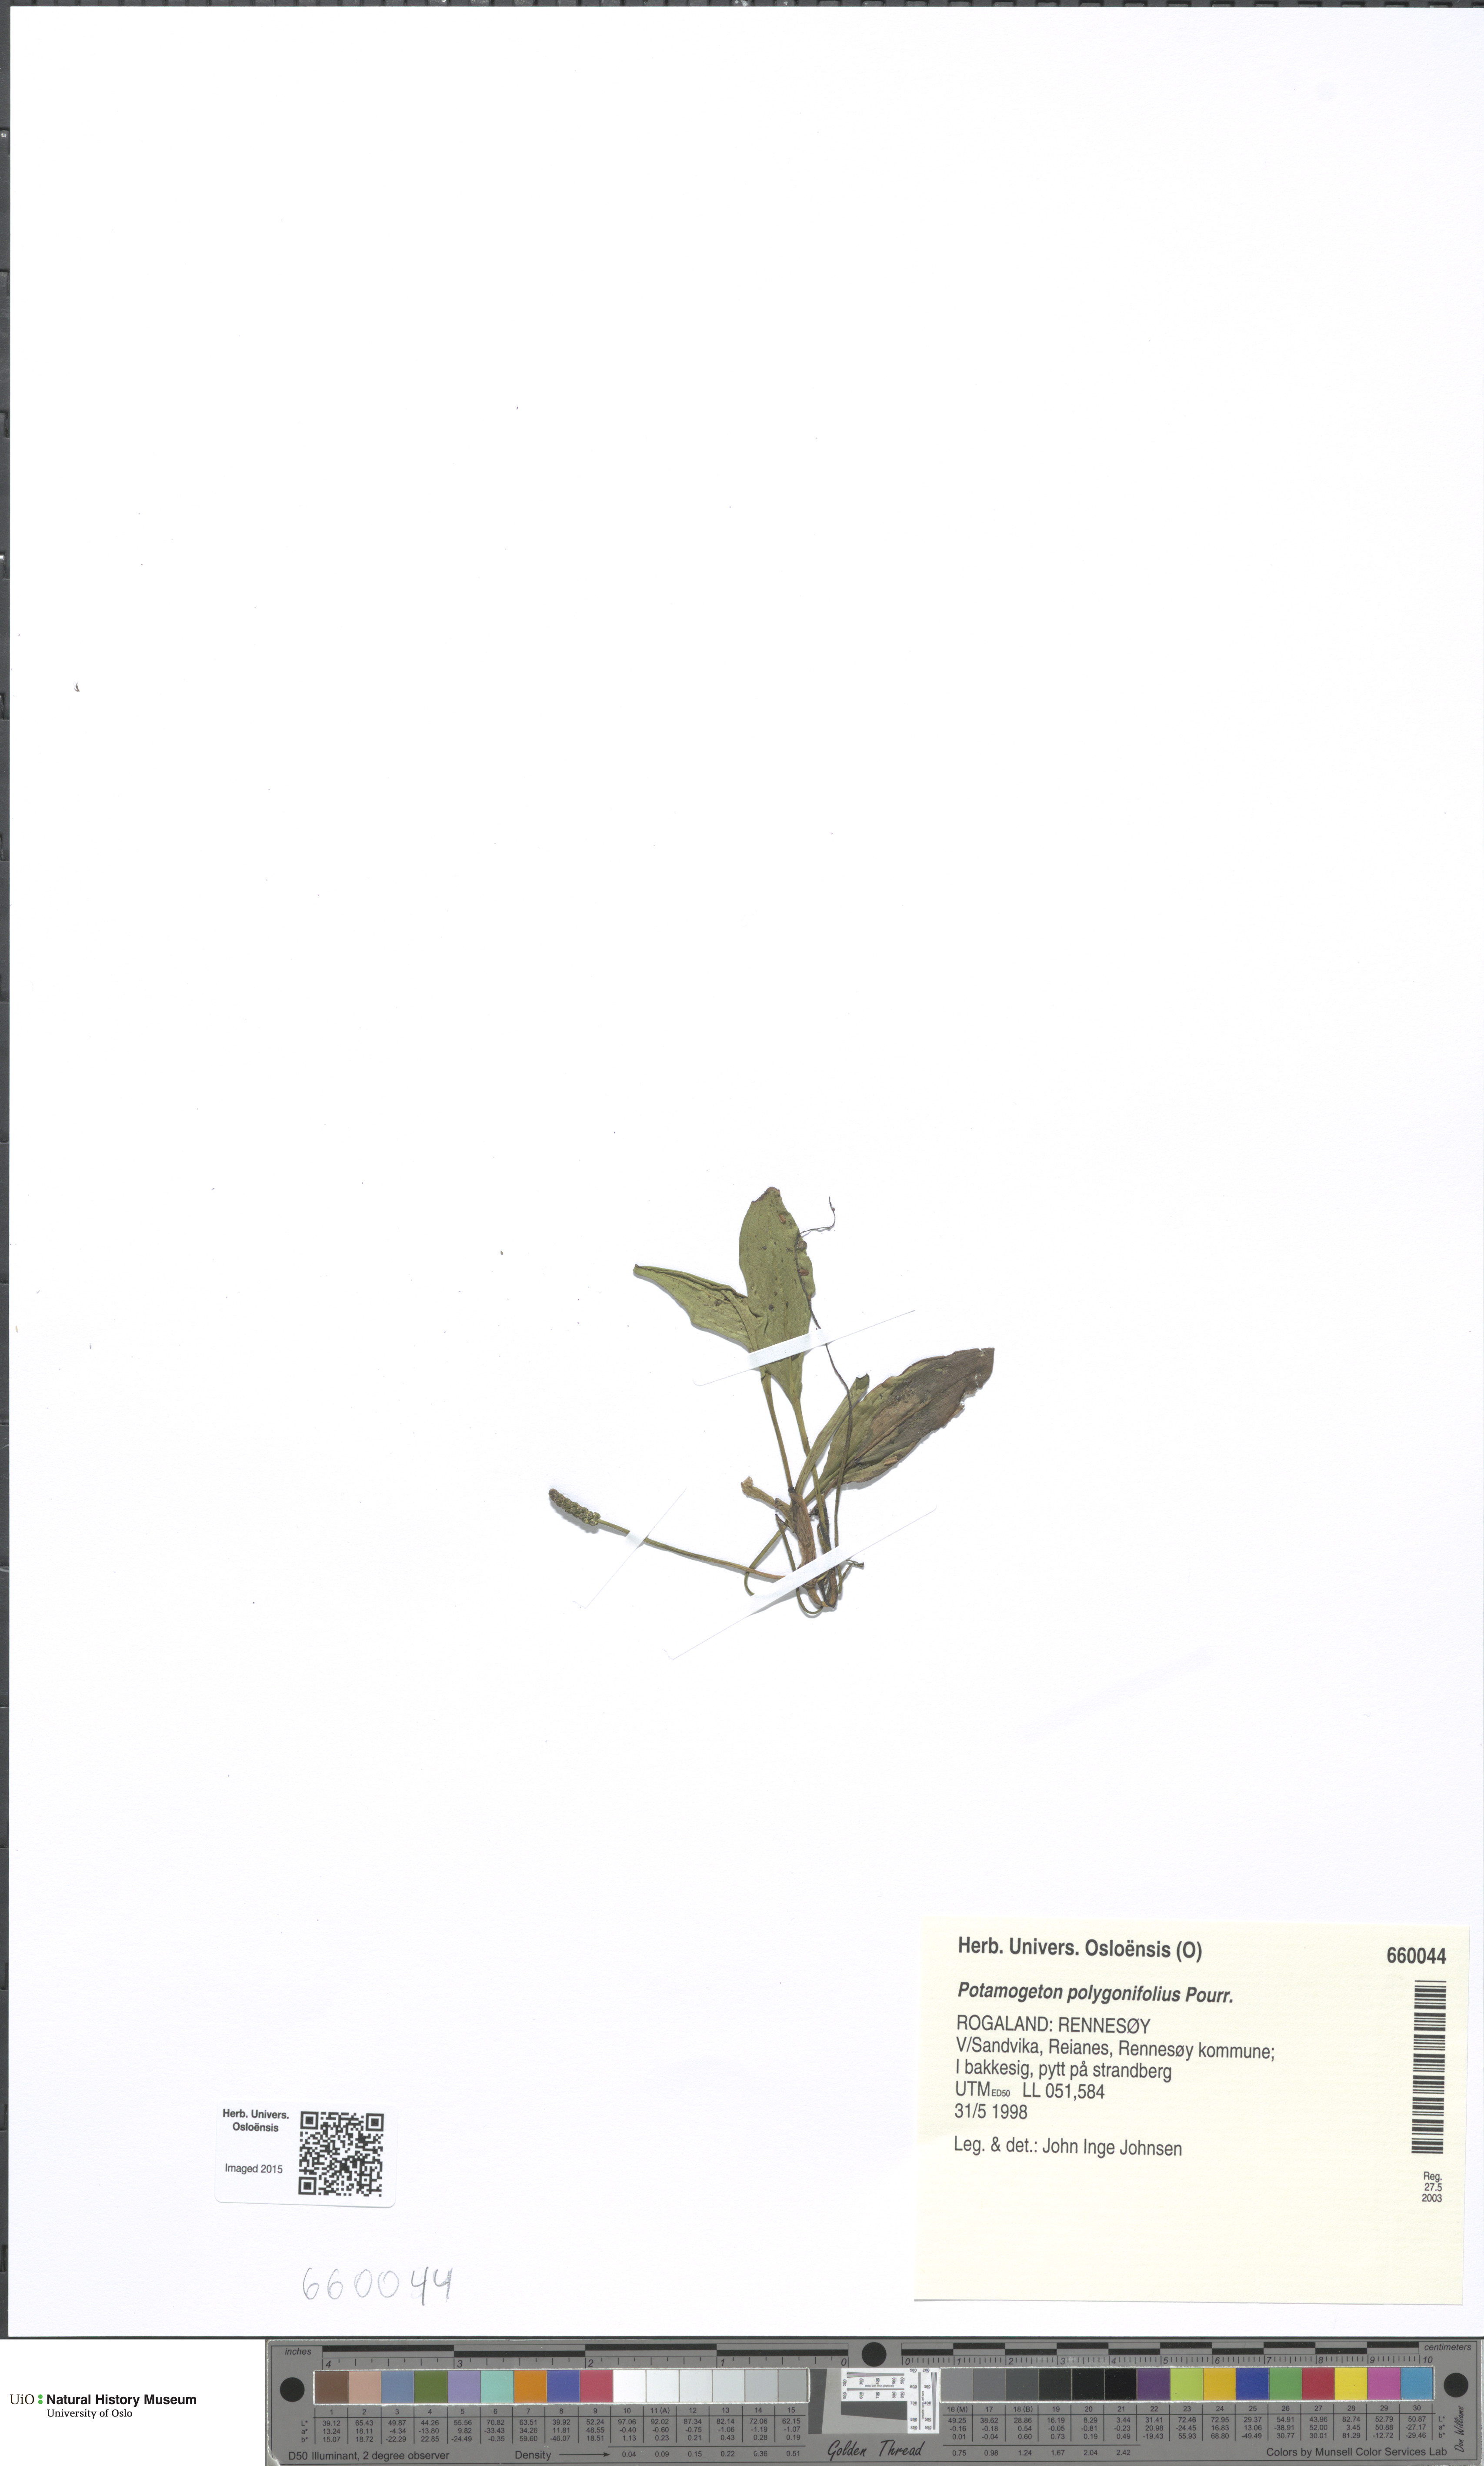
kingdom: Plantae
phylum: Tracheophyta
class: Liliopsida
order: Alismatales
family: Potamogetonaceae
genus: Potamogeton
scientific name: Potamogeton polygonifolius
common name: Bog pondweed
